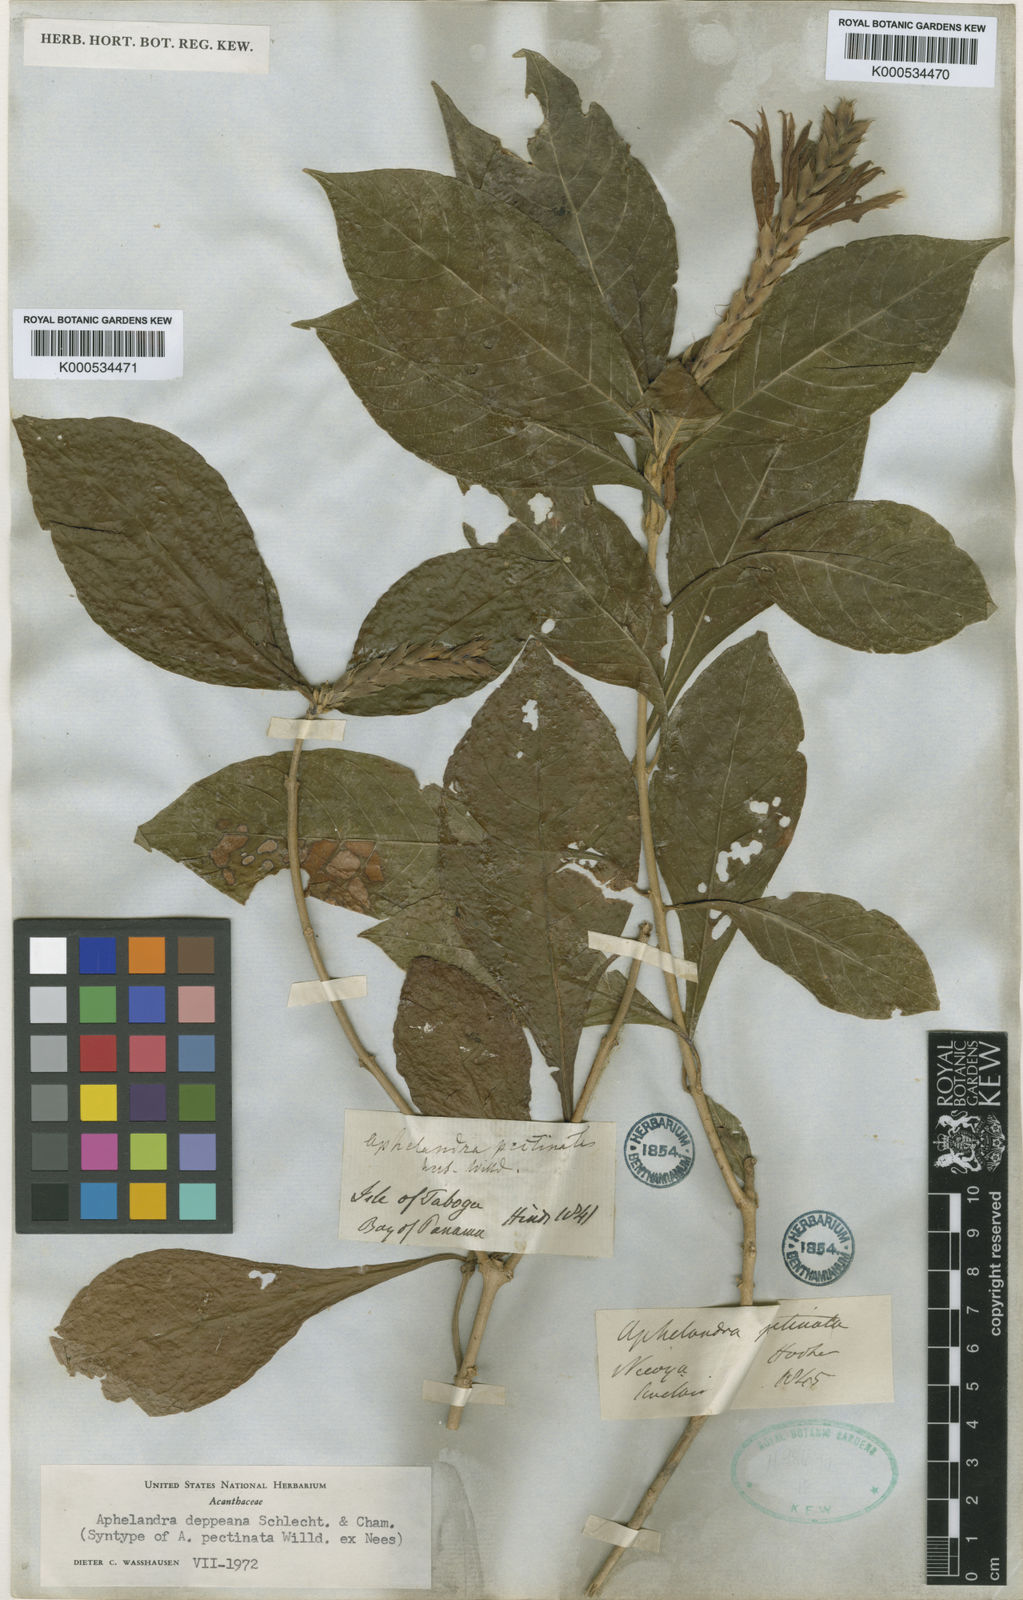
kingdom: Plantae
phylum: Tracheophyta
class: Magnoliopsida
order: Lamiales
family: Acanthaceae
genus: Aphelandra
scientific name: Aphelandra scabra
